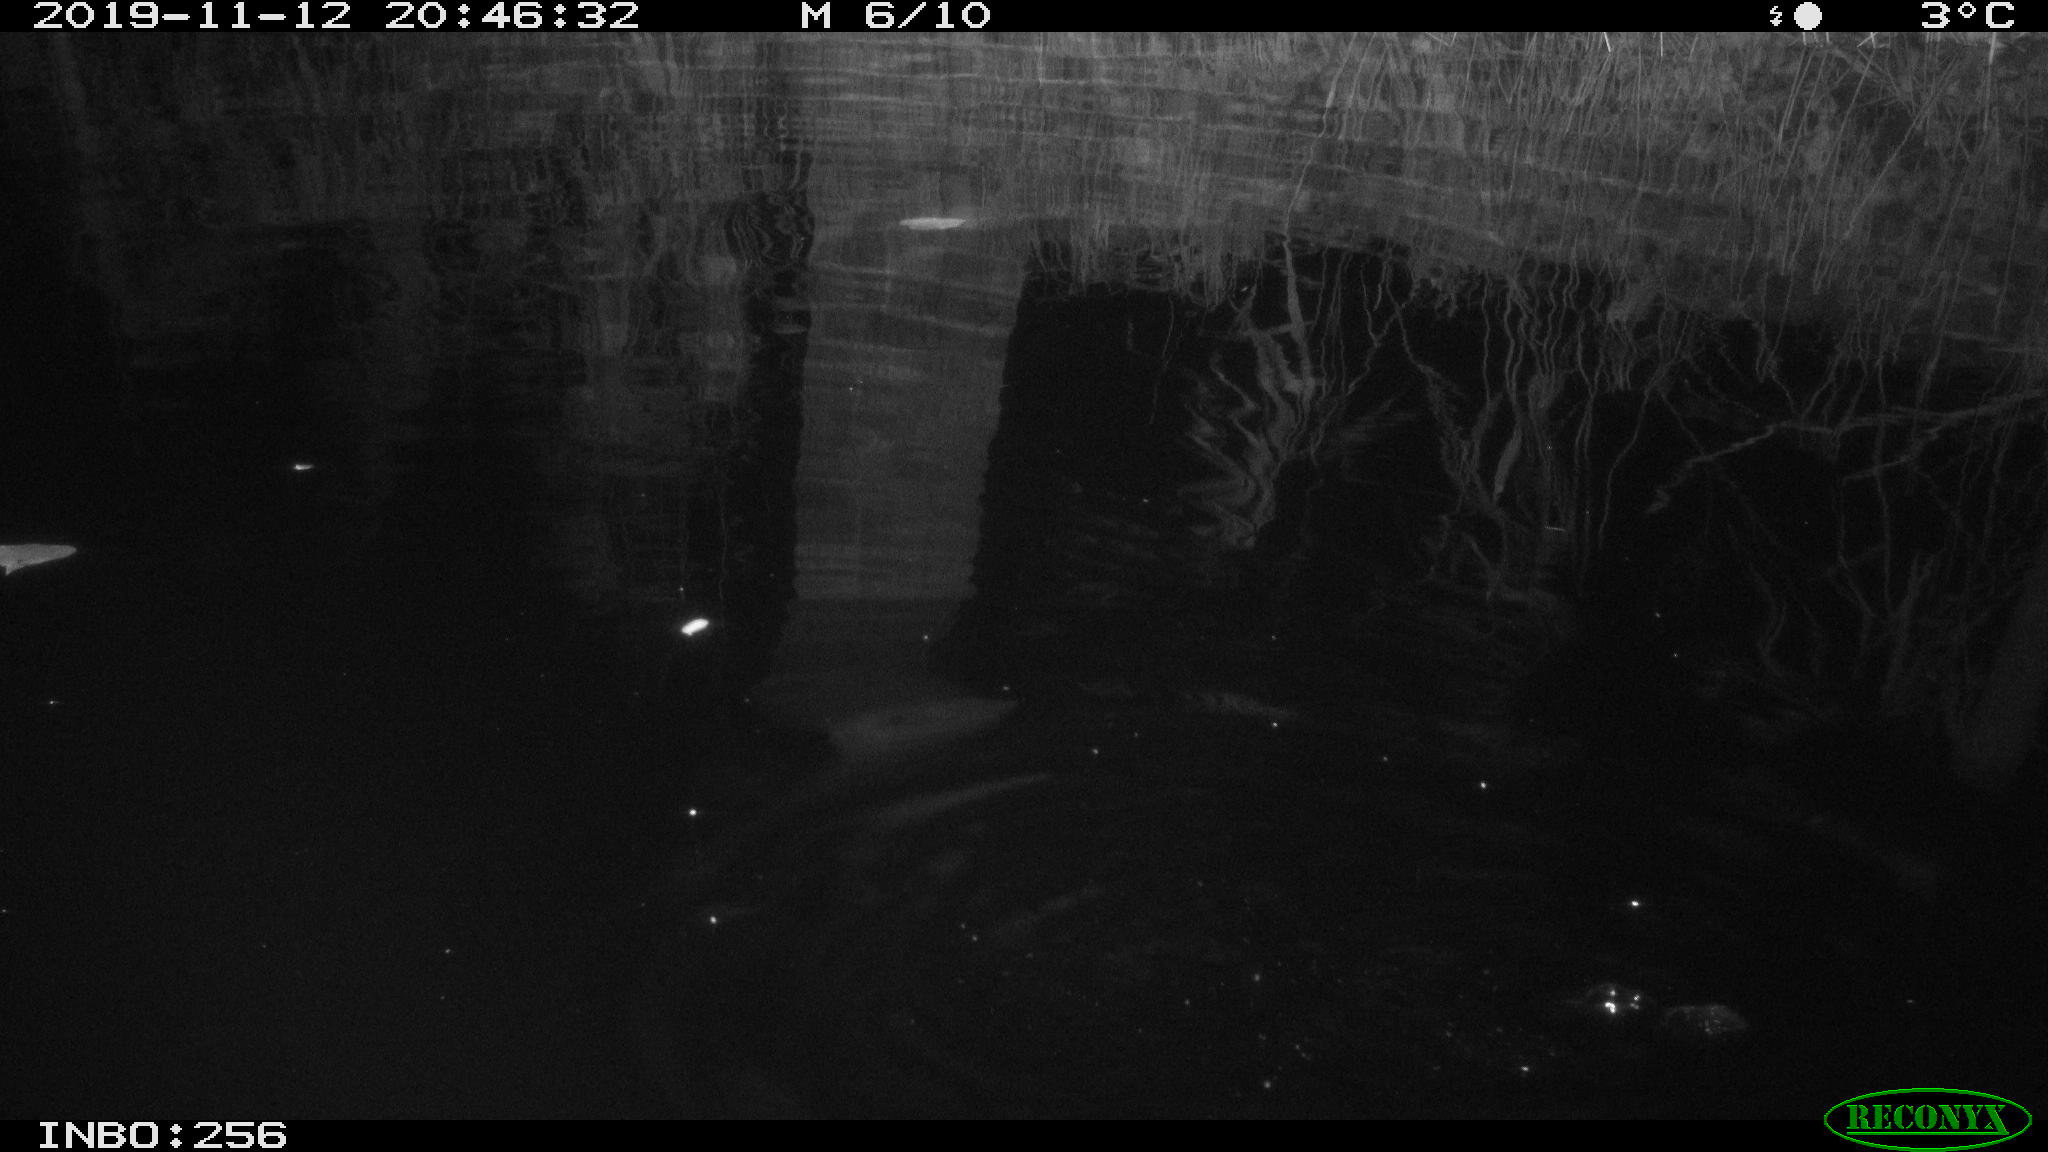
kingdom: Animalia
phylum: Chordata
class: Mammalia
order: Rodentia
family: Muridae
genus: Rattus
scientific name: Rattus norvegicus
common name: Brown rat
